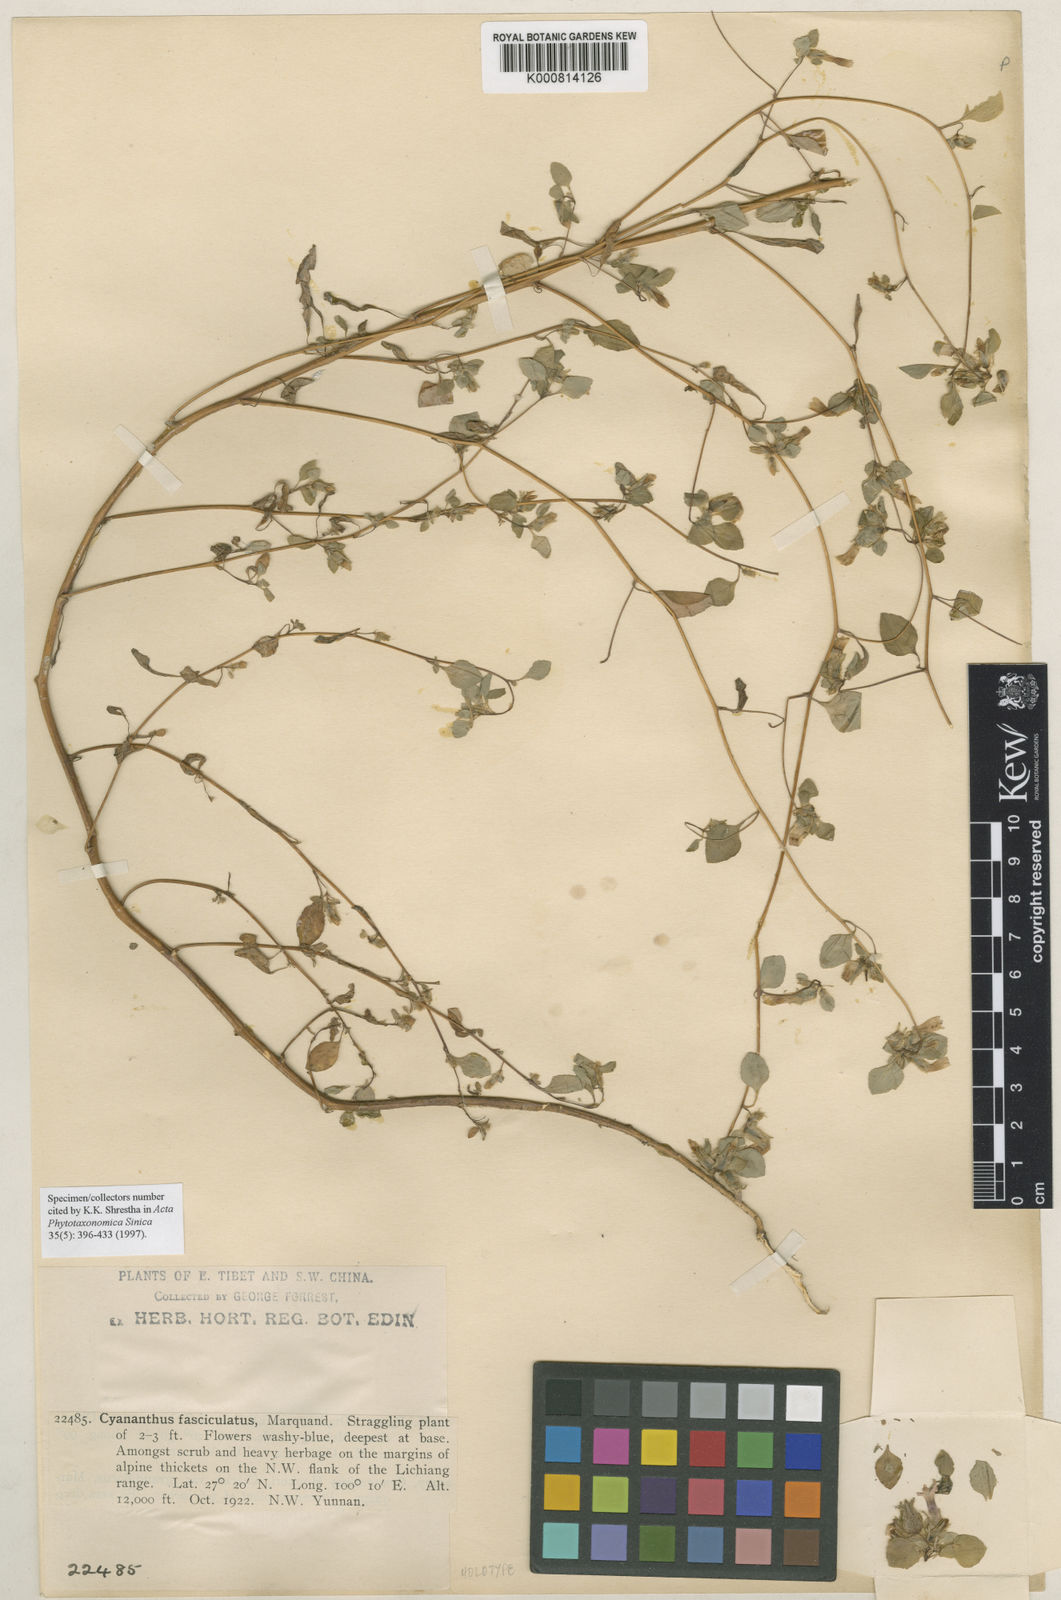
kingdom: Plantae
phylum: Tracheophyta
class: Magnoliopsida
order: Asterales
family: Campanulaceae
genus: Cyananthus
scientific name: Cyananthus fasciculatus
